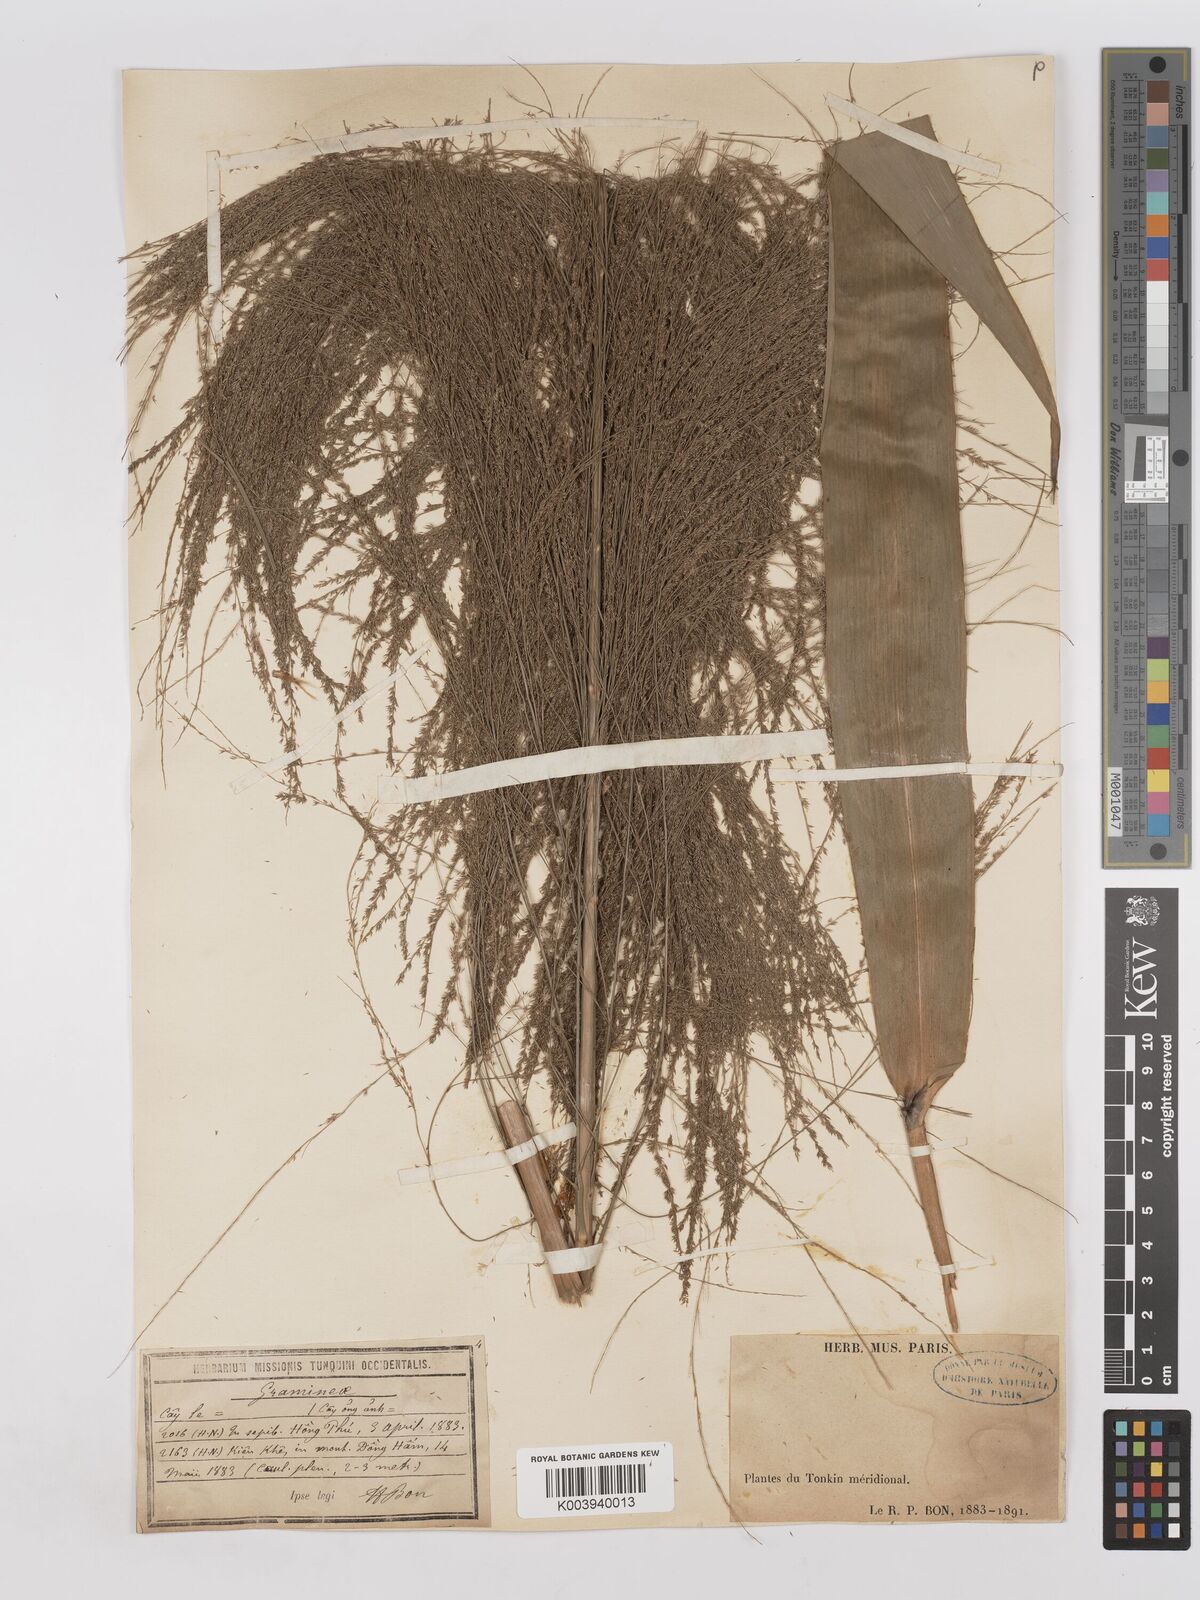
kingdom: Plantae
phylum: Tracheophyta
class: Liliopsida
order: Poales
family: Poaceae
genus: Thysanolaena
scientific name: Thysanolaena latifolia
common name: Tiger grass
